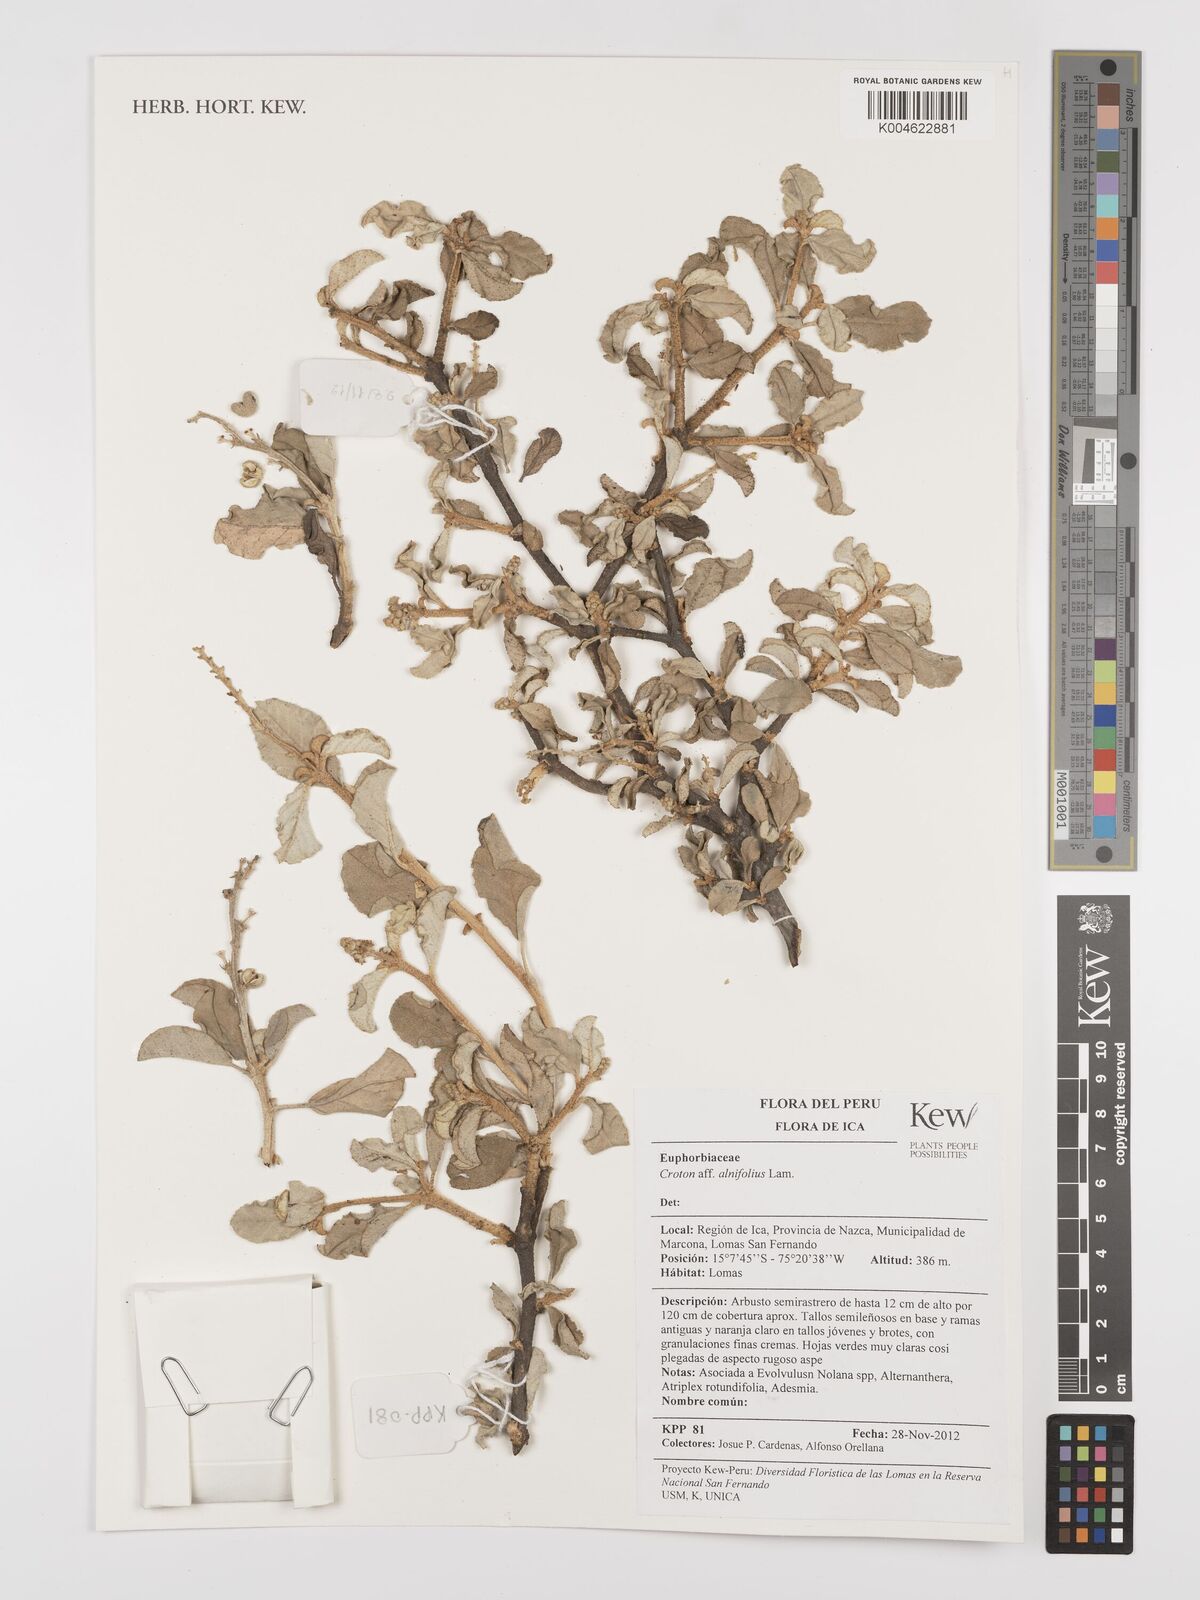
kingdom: Plantae
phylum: Tracheophyta
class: Magnoliopsida
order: Malpighiales
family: Euphorbiaceae
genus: Croton
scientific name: Croton alnifolius
